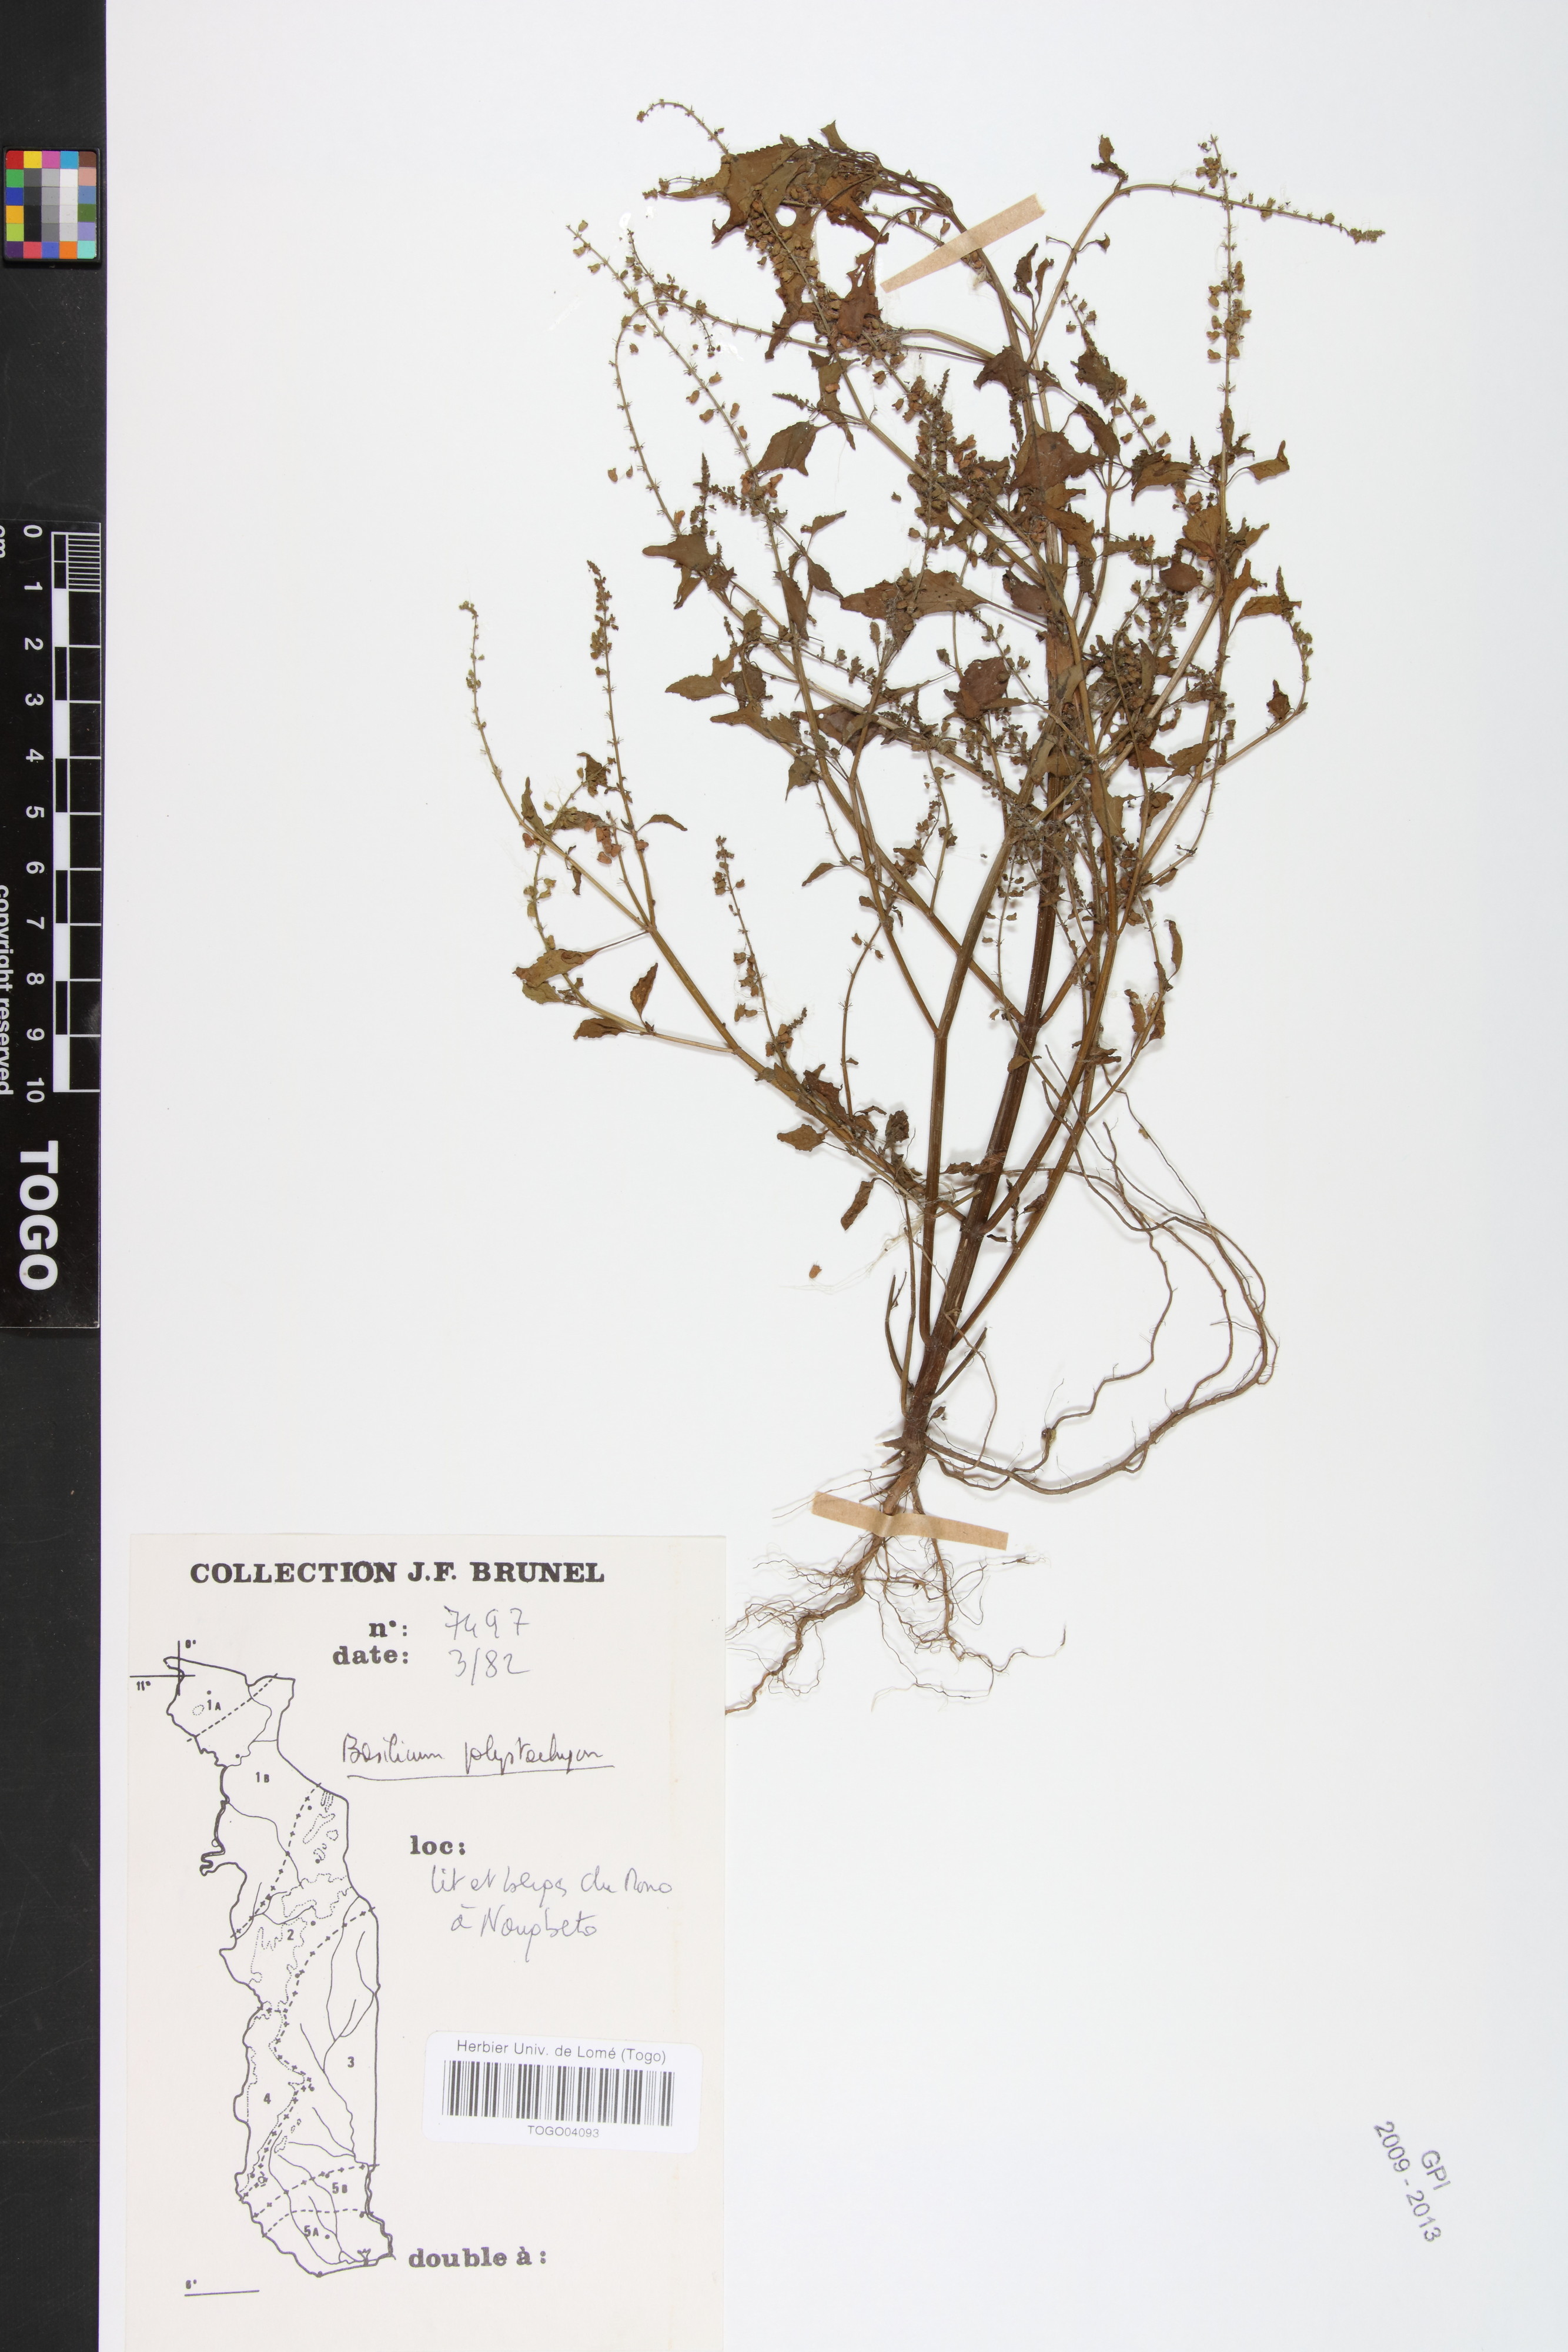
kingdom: Plantae
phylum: Tracheophyta
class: Magnoliopsida
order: Lamiales
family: Lamiaceae
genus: Basilicum
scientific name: Basilicum polystachyon
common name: Musk-basil
